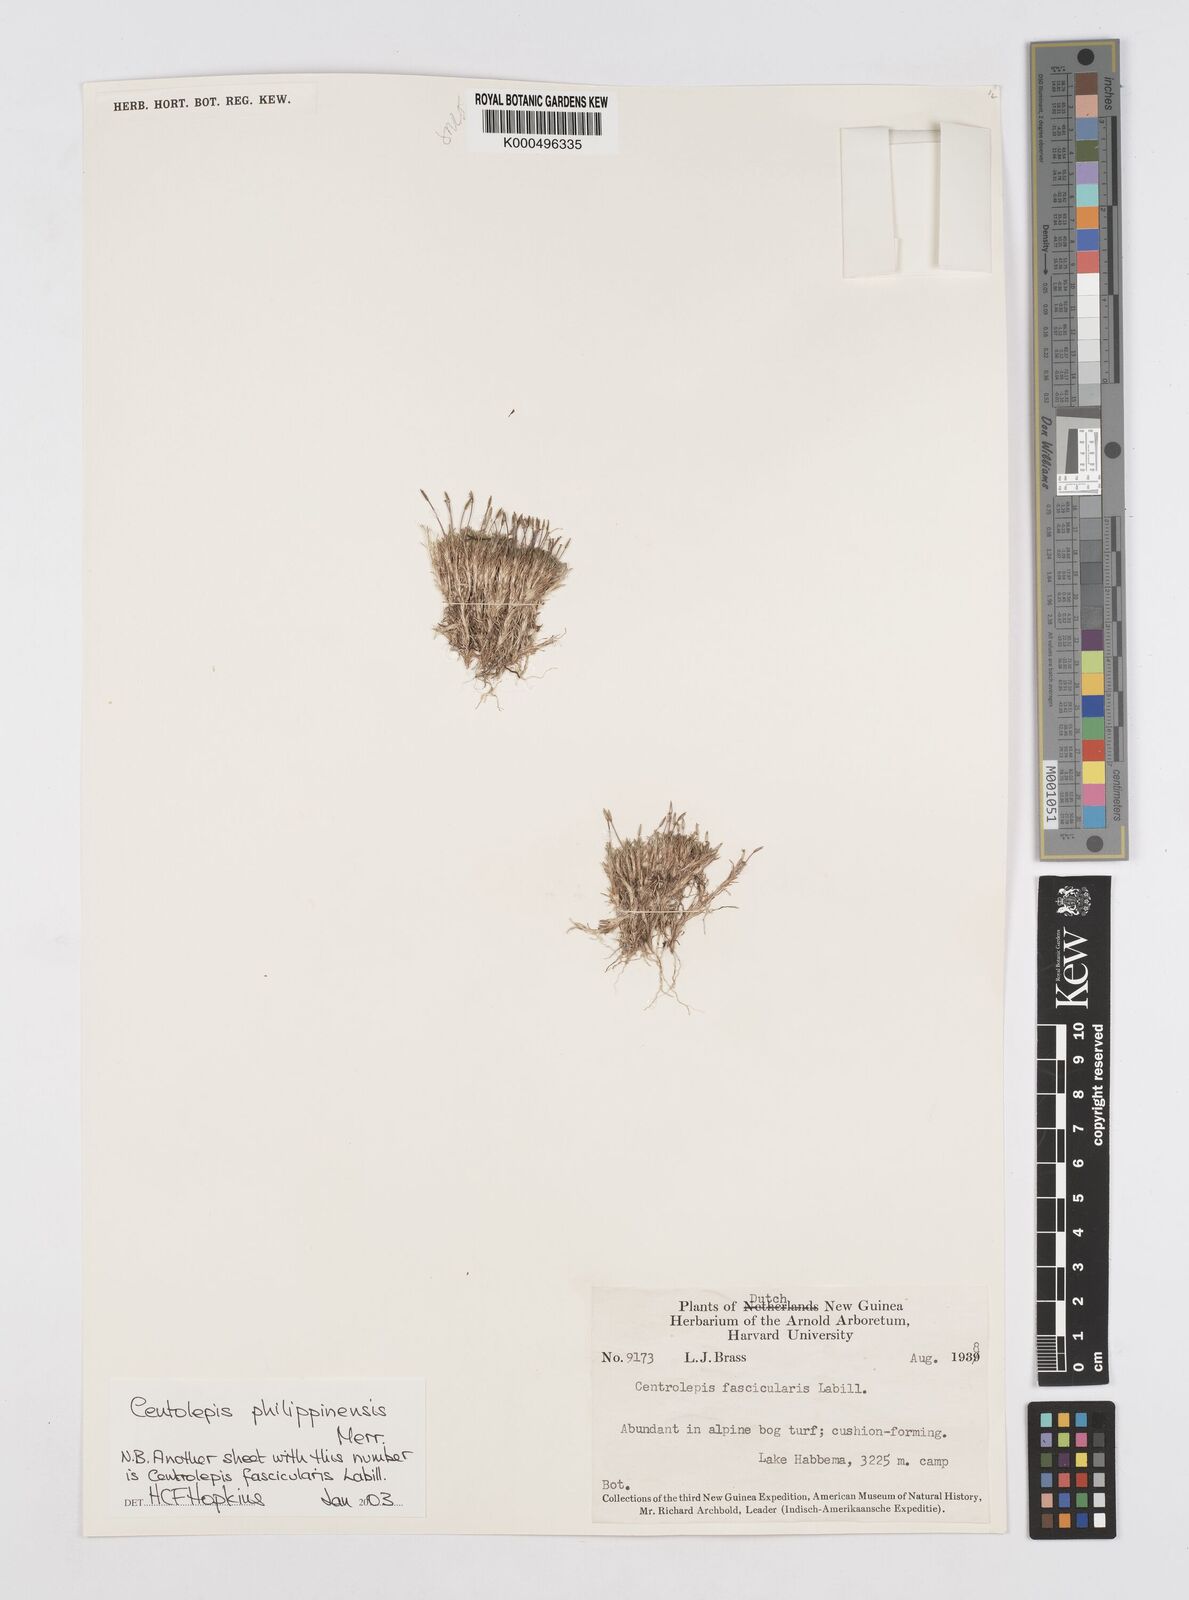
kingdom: Plantae
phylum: Tracheophyta
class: Liliopsida
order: Poales
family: Restionaceae
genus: Centrolepis
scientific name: Centrolepis philippinensis
